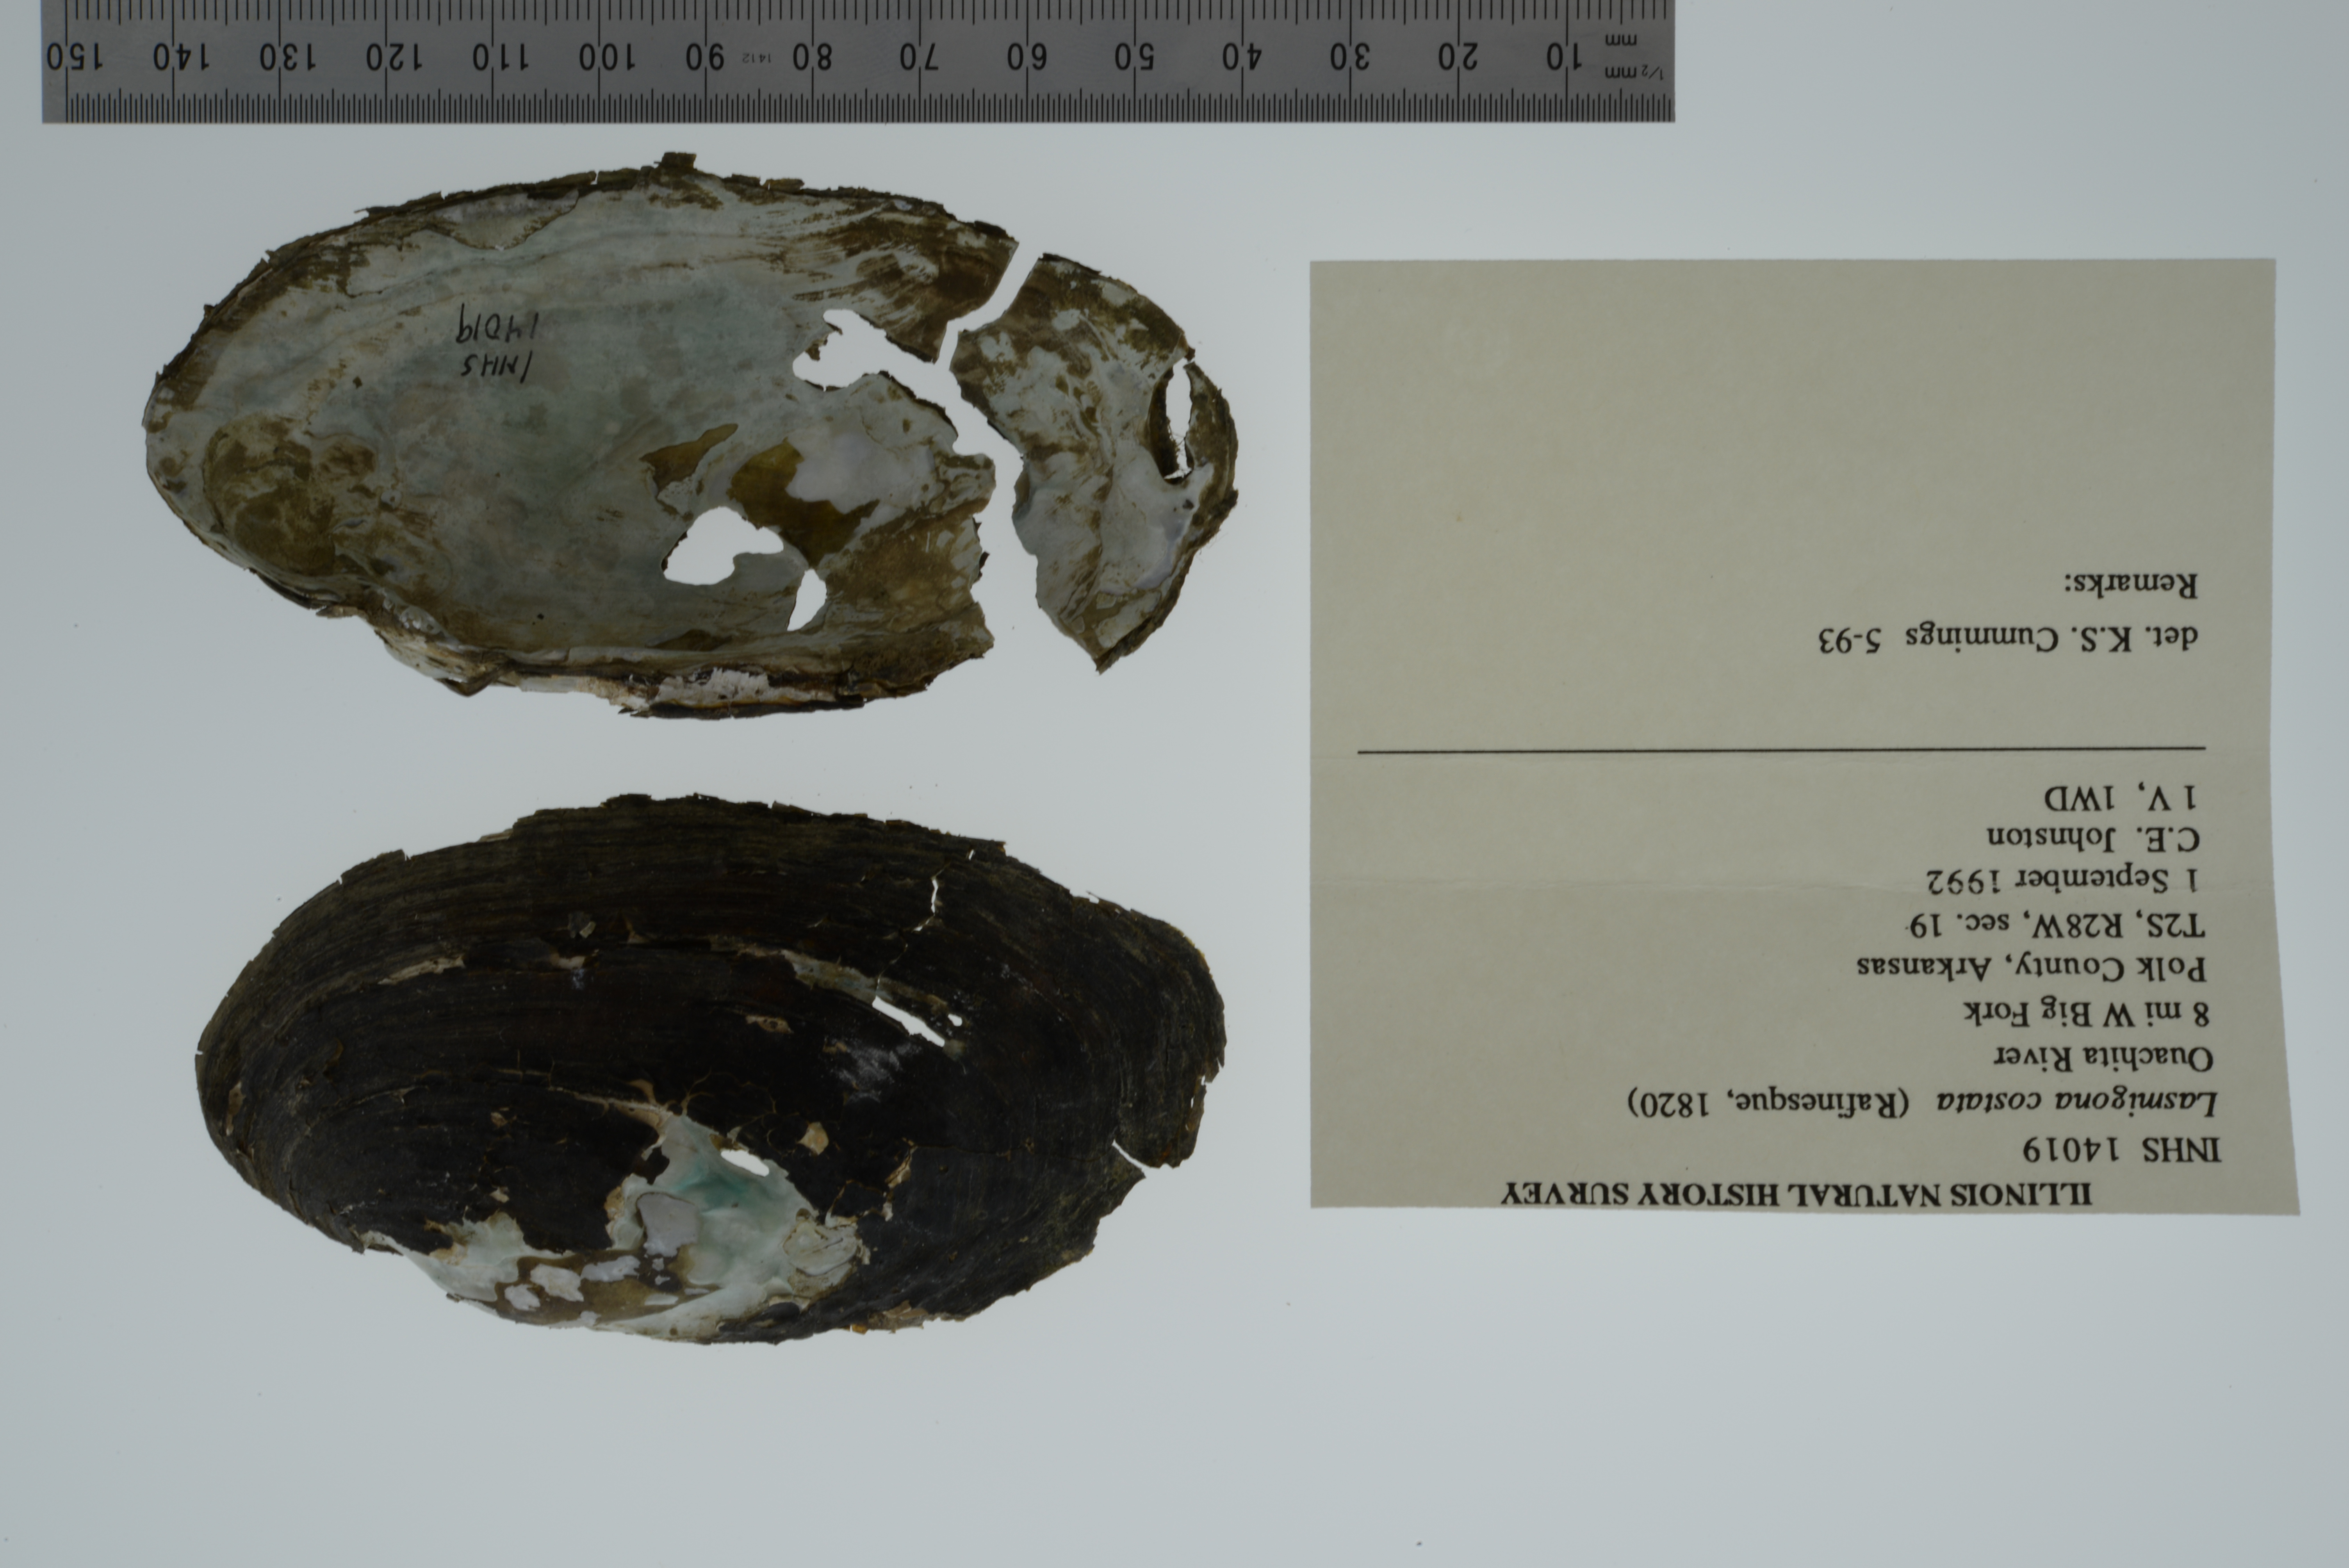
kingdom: Animalia
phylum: Mollusca
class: Bivalvia
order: Unionida
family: Unionidae
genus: Lasmigona
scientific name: Lasmigona costata
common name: Flutedshell
